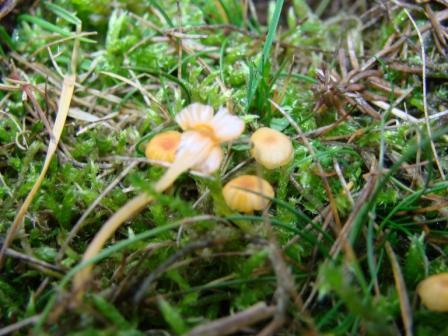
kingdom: Fungi
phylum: Basidiomycota
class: Agaricomycetes
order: Hymenochaetales
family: Rickenellaceae
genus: Rickenella
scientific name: Rickenella fibula
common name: orange mosnavlehat
